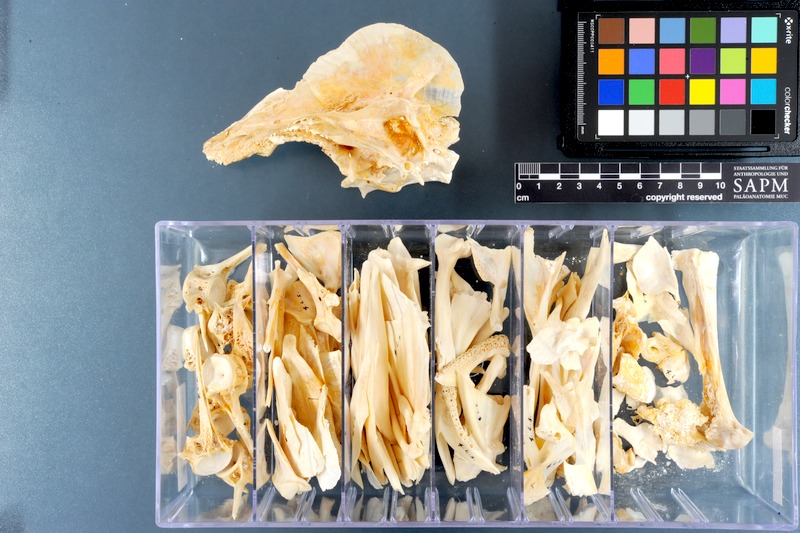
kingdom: Animalia
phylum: Chordata
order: Perciformes
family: Lutjanidae
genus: Lutjanus
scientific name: Lutjanus sebae
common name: Emperor red snapper
